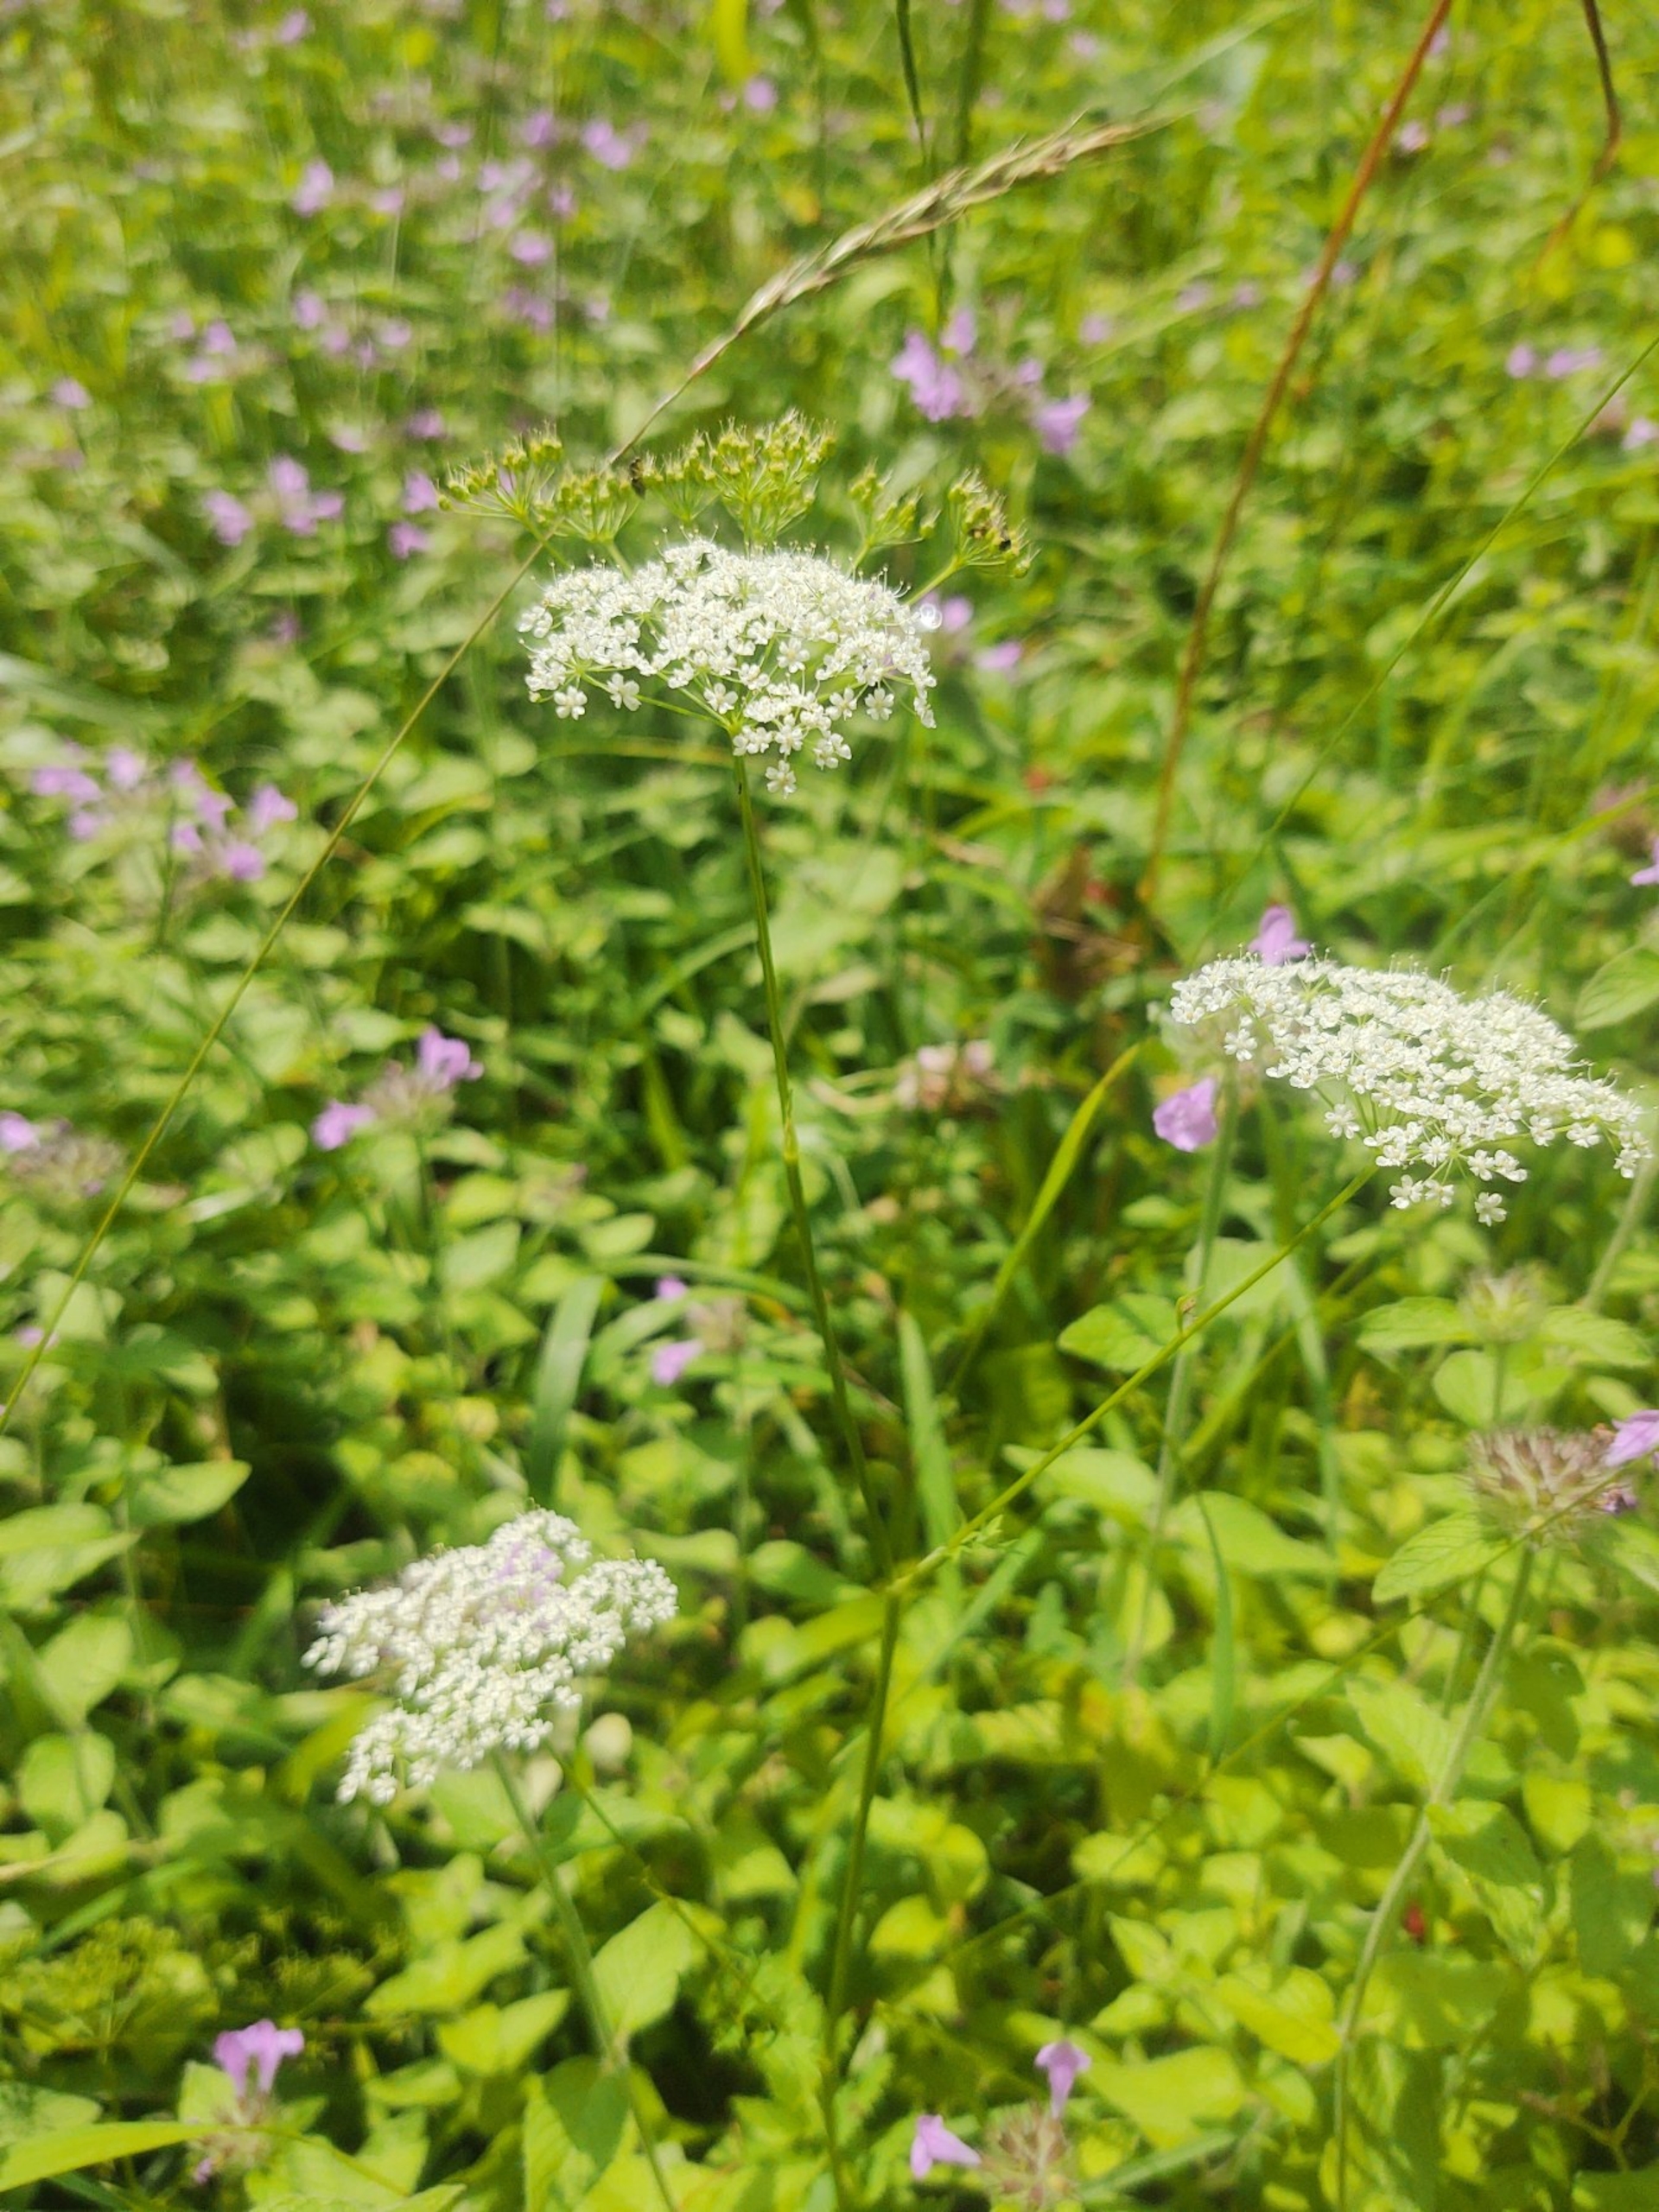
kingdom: Plantae
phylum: Tracheophyta
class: Magnoliopsida
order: Apiales
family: Apiaceae
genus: Pimpinella
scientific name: Pimpinella major
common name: Stor pimpinelle
